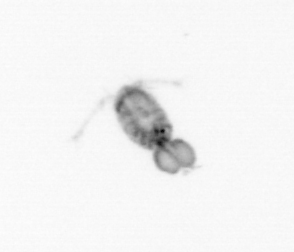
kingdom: Animalia
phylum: Arthropoda
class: Copepoda
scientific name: Copepoda
